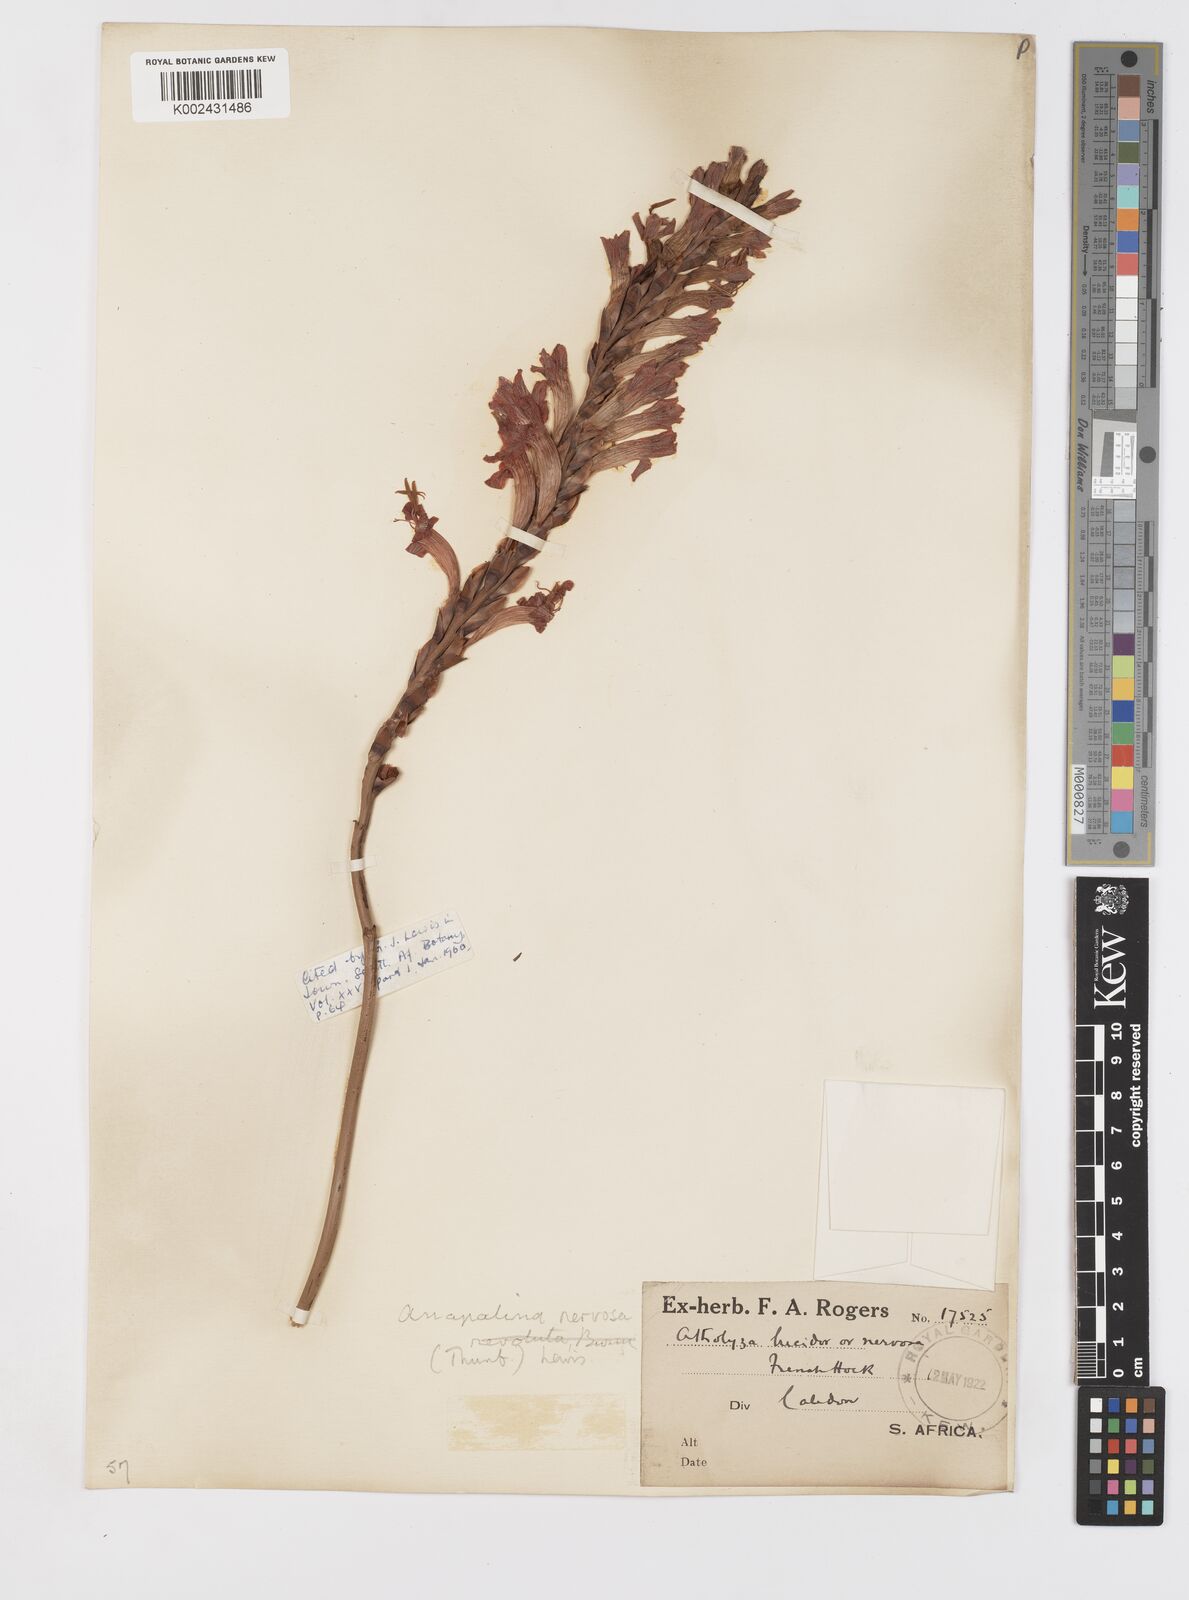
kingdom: Plantae
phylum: Tracheophyta
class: Liliopsida
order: Asparagales
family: Iridaceae
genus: Tritoniopsis
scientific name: Tritoniopsis nervosa
